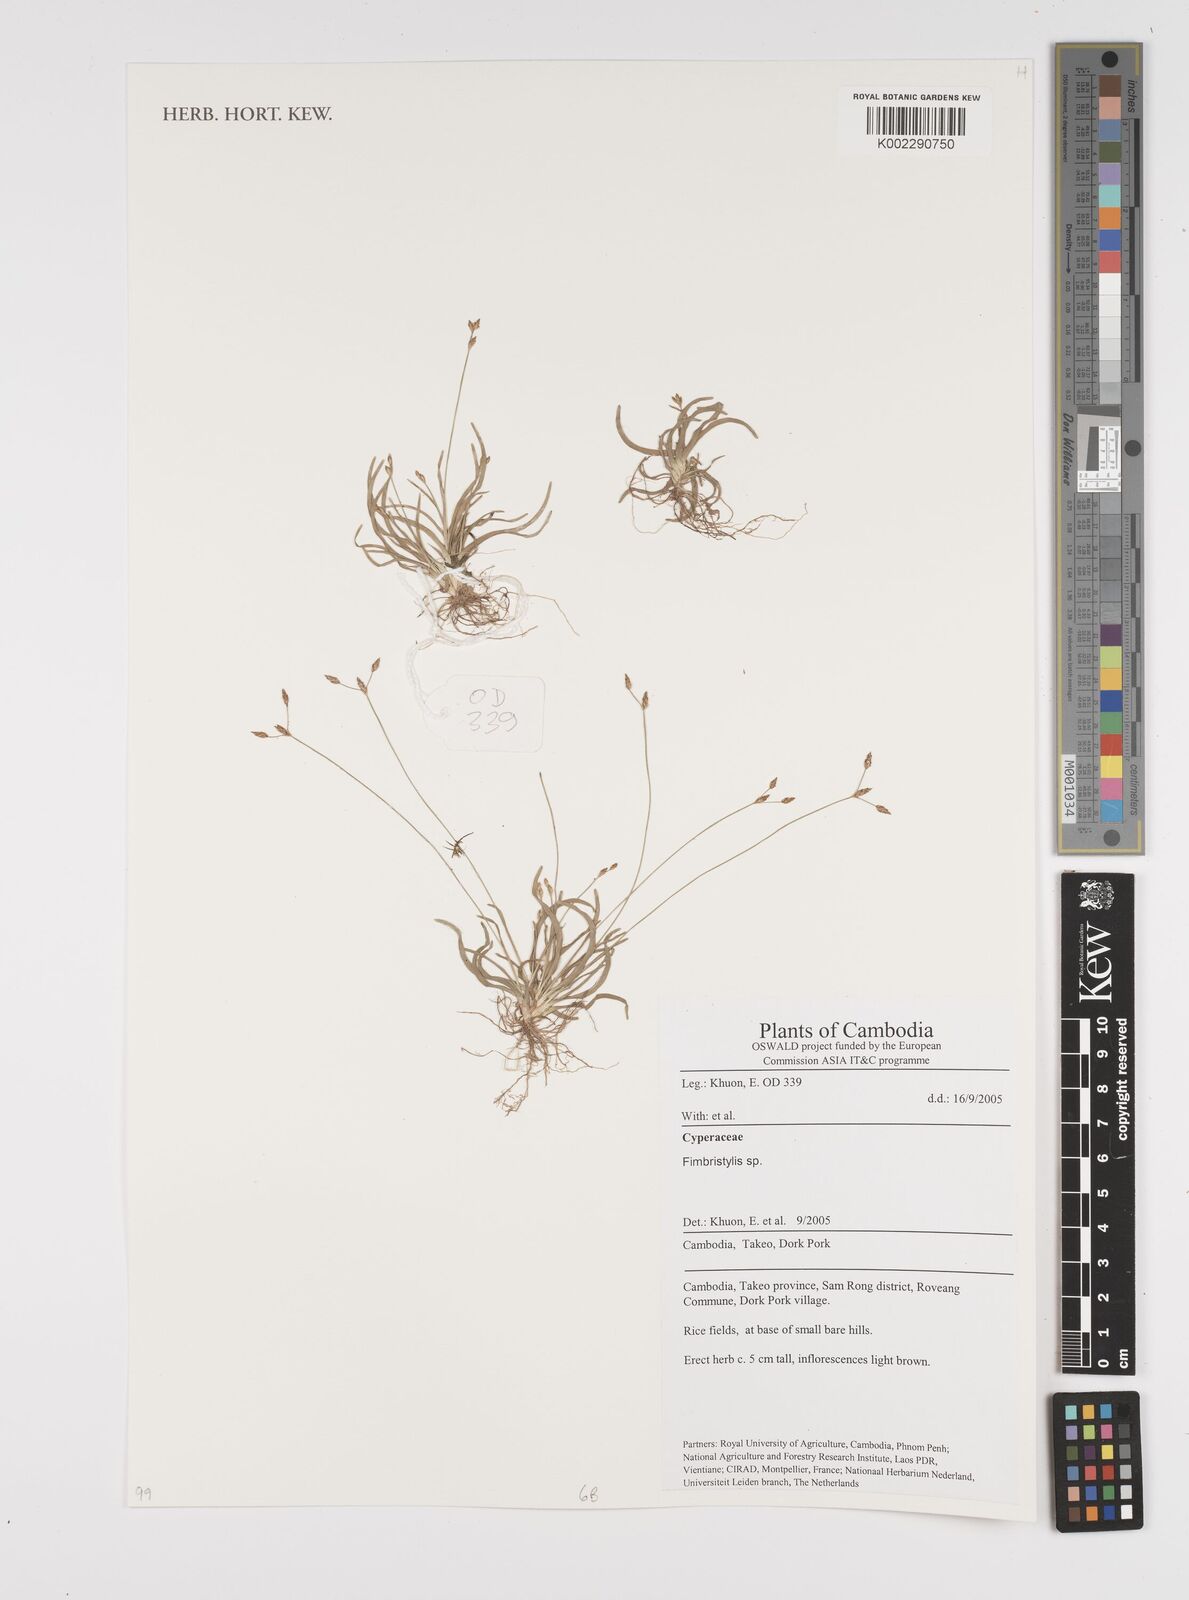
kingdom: Plantae
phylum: Tracheophyta
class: Liliopsida
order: Poales
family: Cyperaceae
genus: Fimbristylis
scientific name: Fimbristylis
